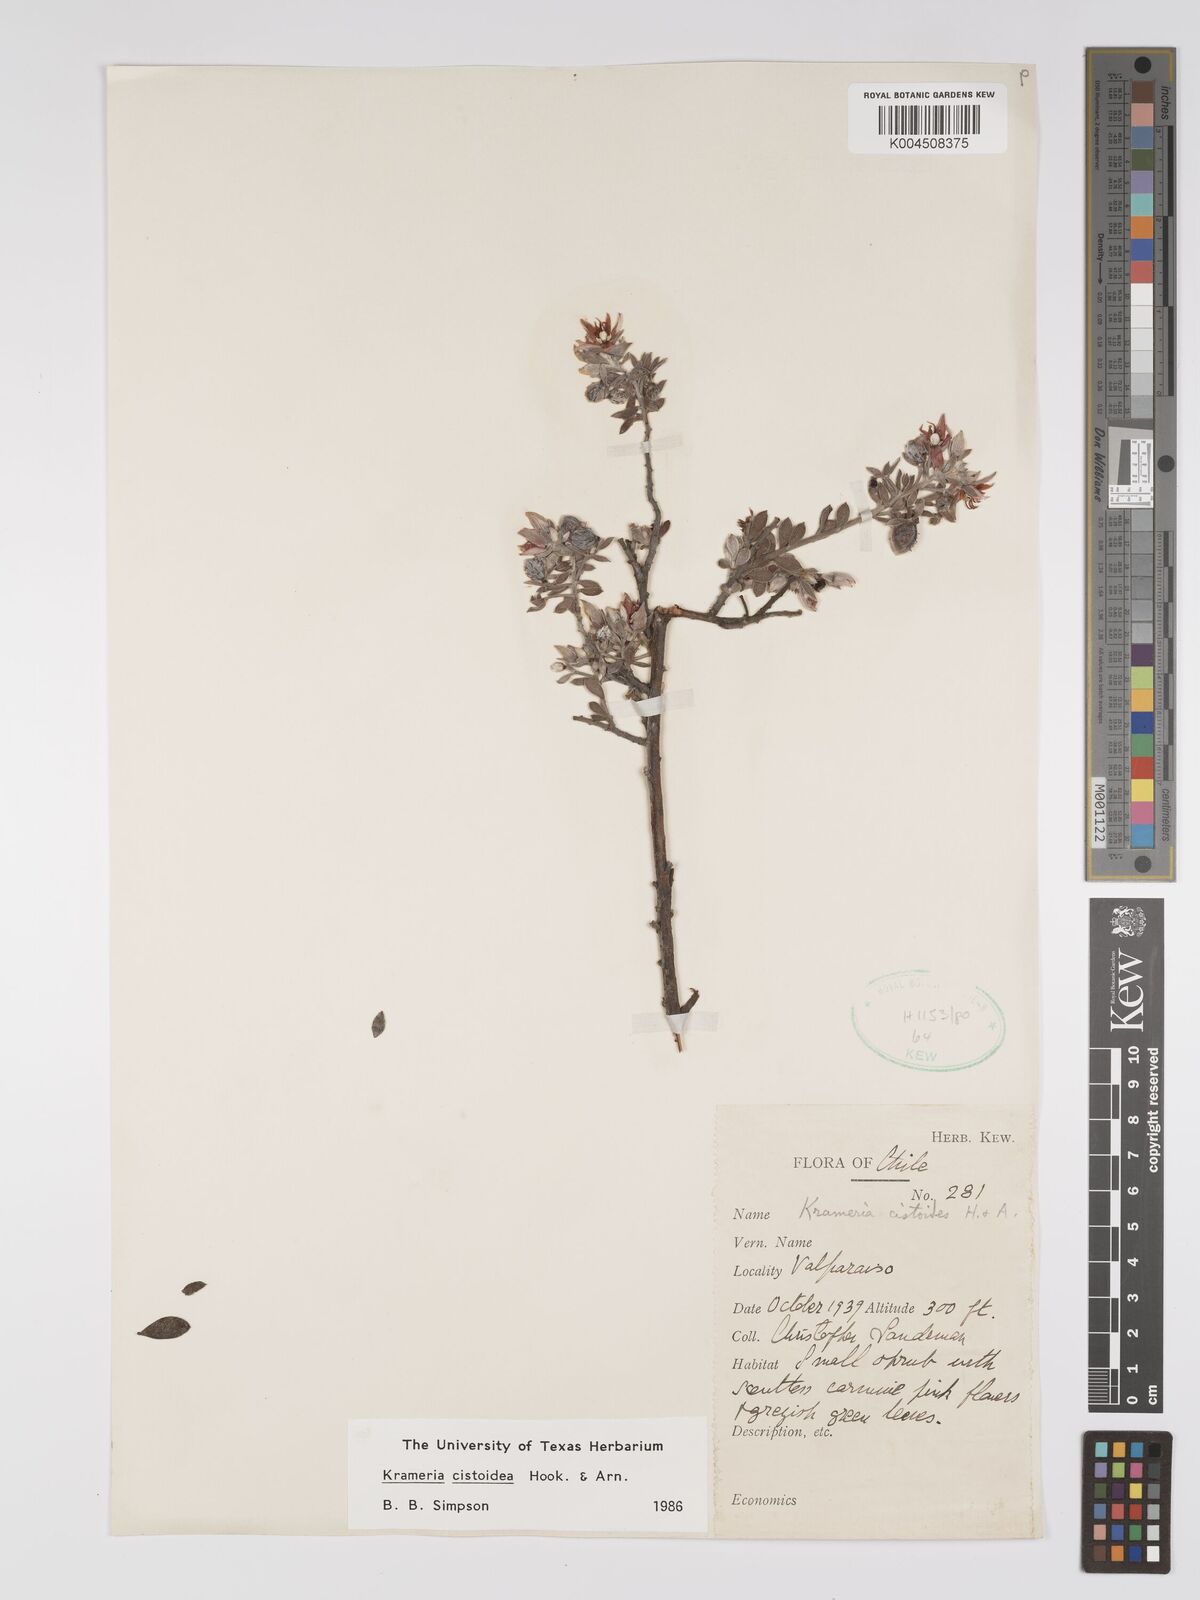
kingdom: Plantae
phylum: Tracheophyta
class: Magnoliopsida
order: Zygophyllales
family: Krameriaceae
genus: Krameria
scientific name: Krameria cistoidea
